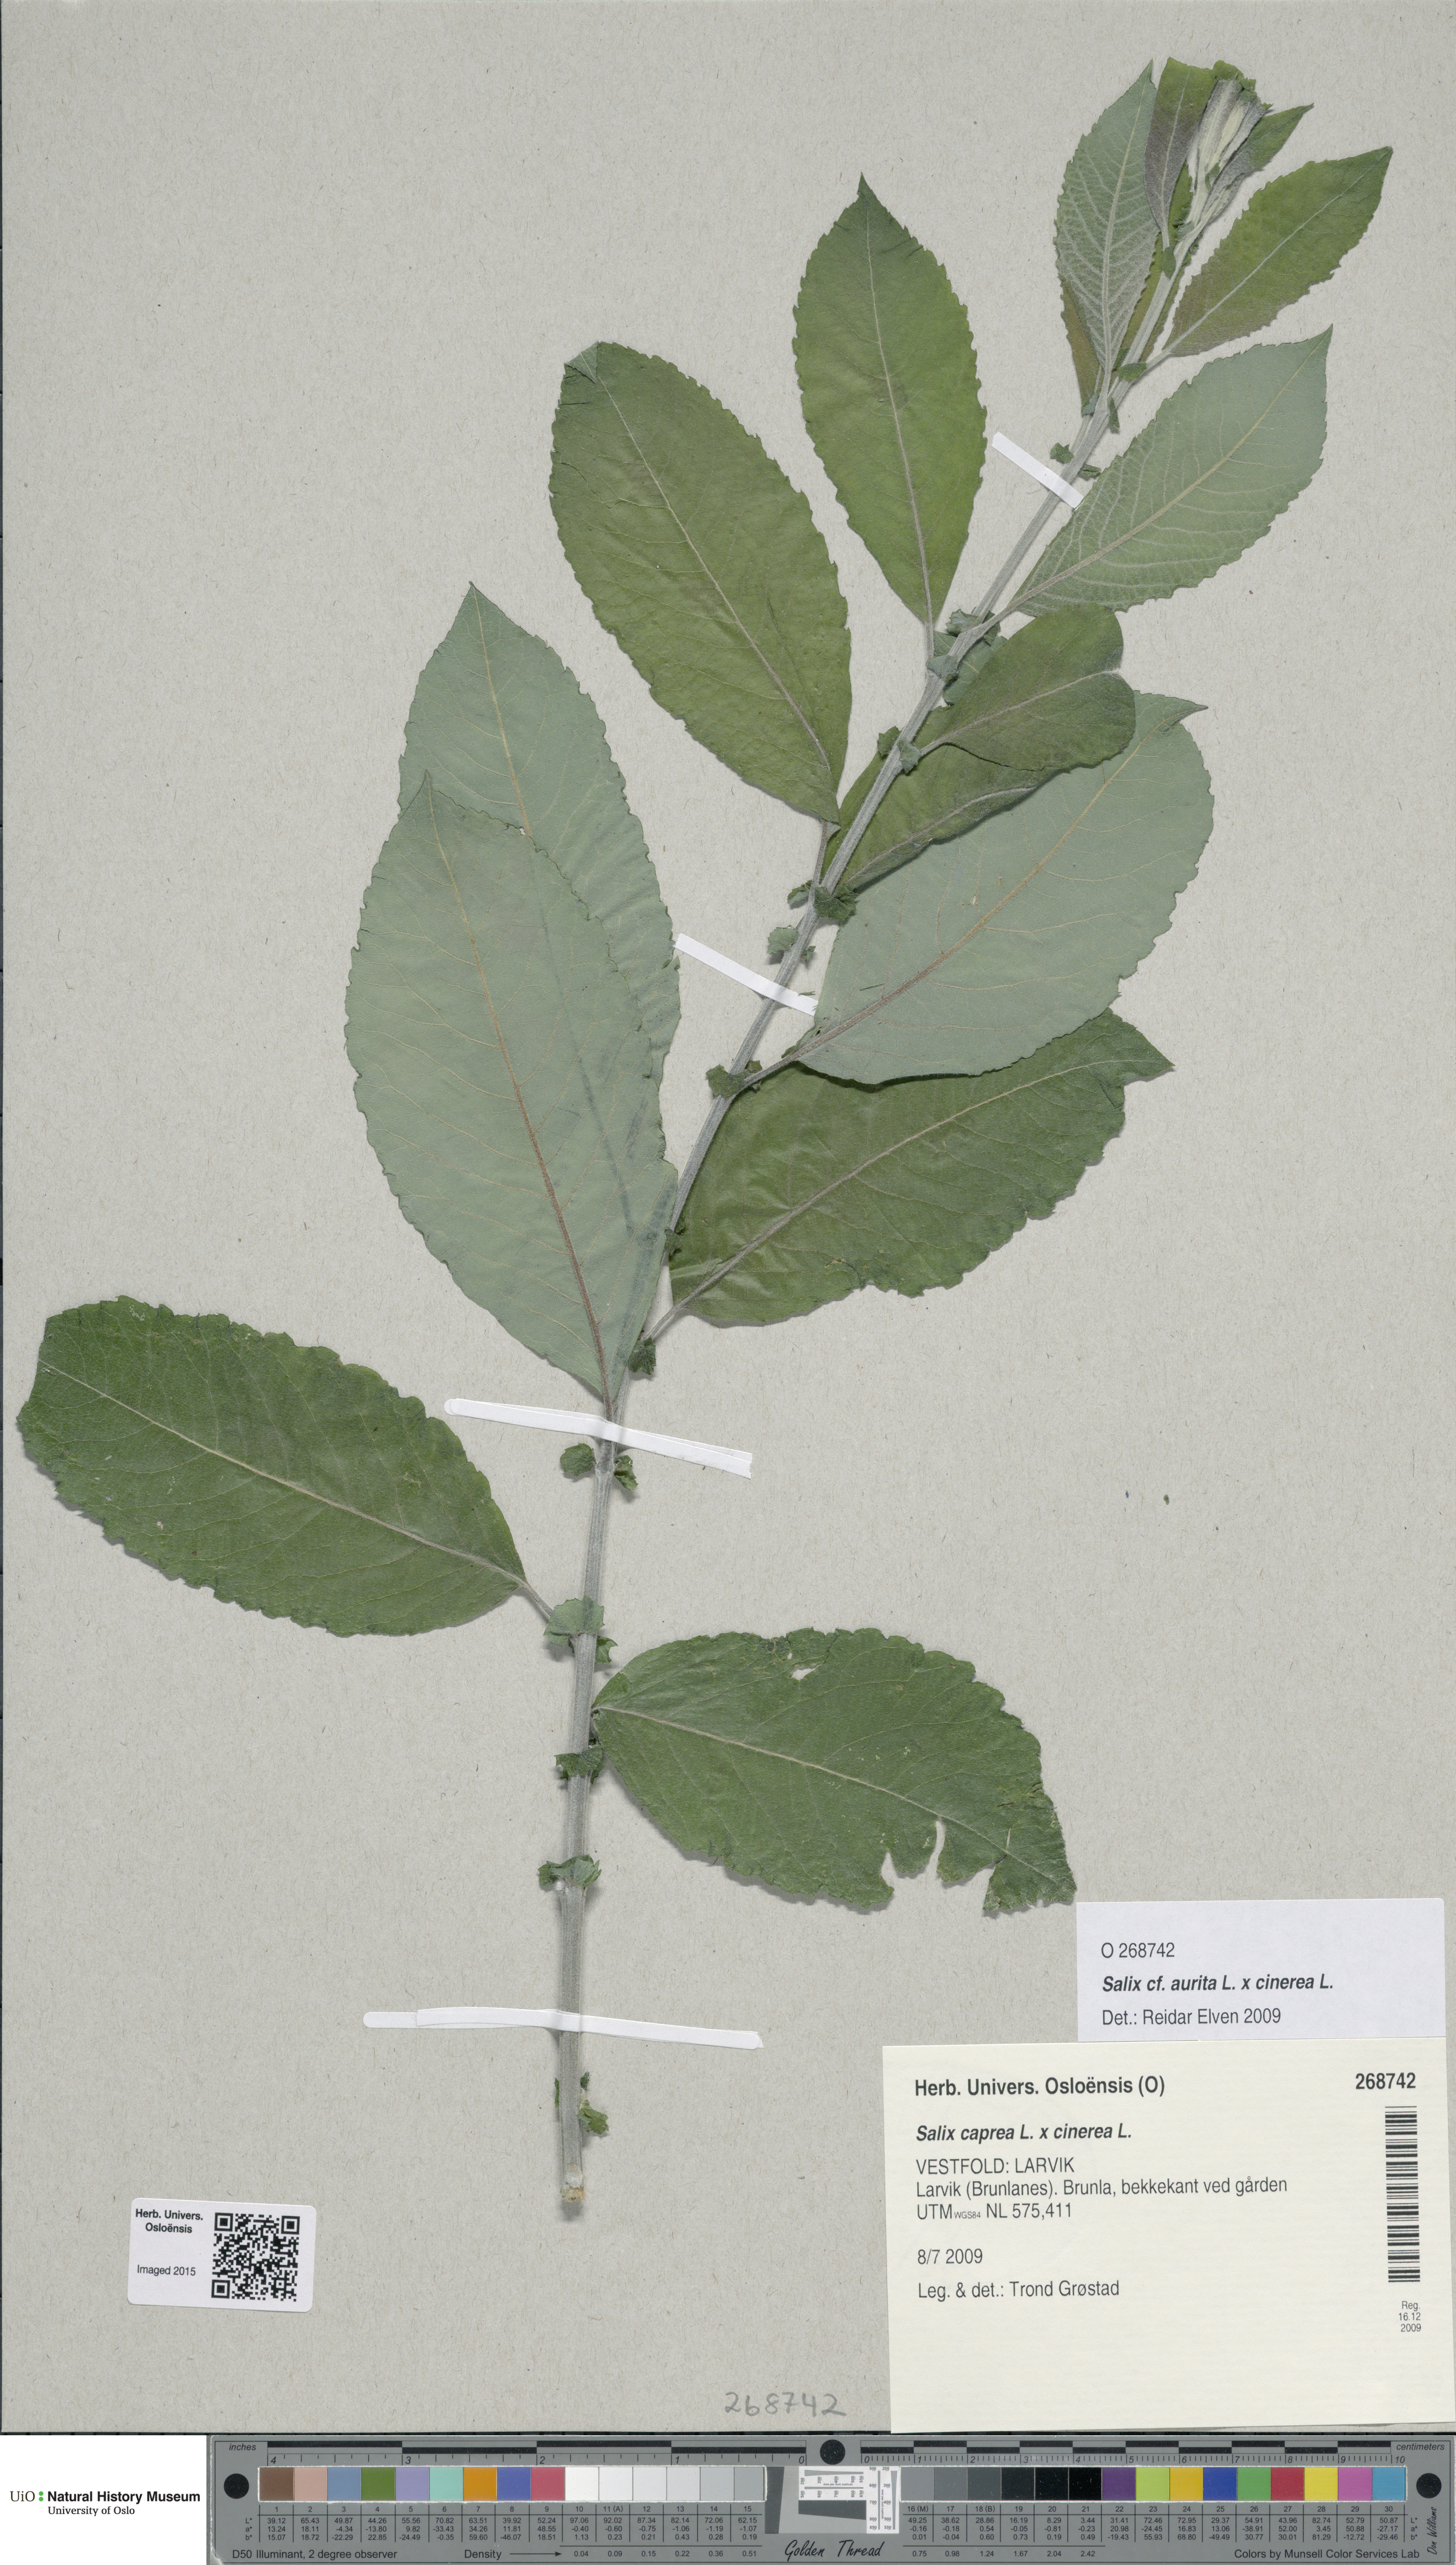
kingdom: Plantae
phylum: Tracheophyta
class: Magnoliopsida
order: Malpighiales
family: Salicaceae
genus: Salix
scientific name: Salix
